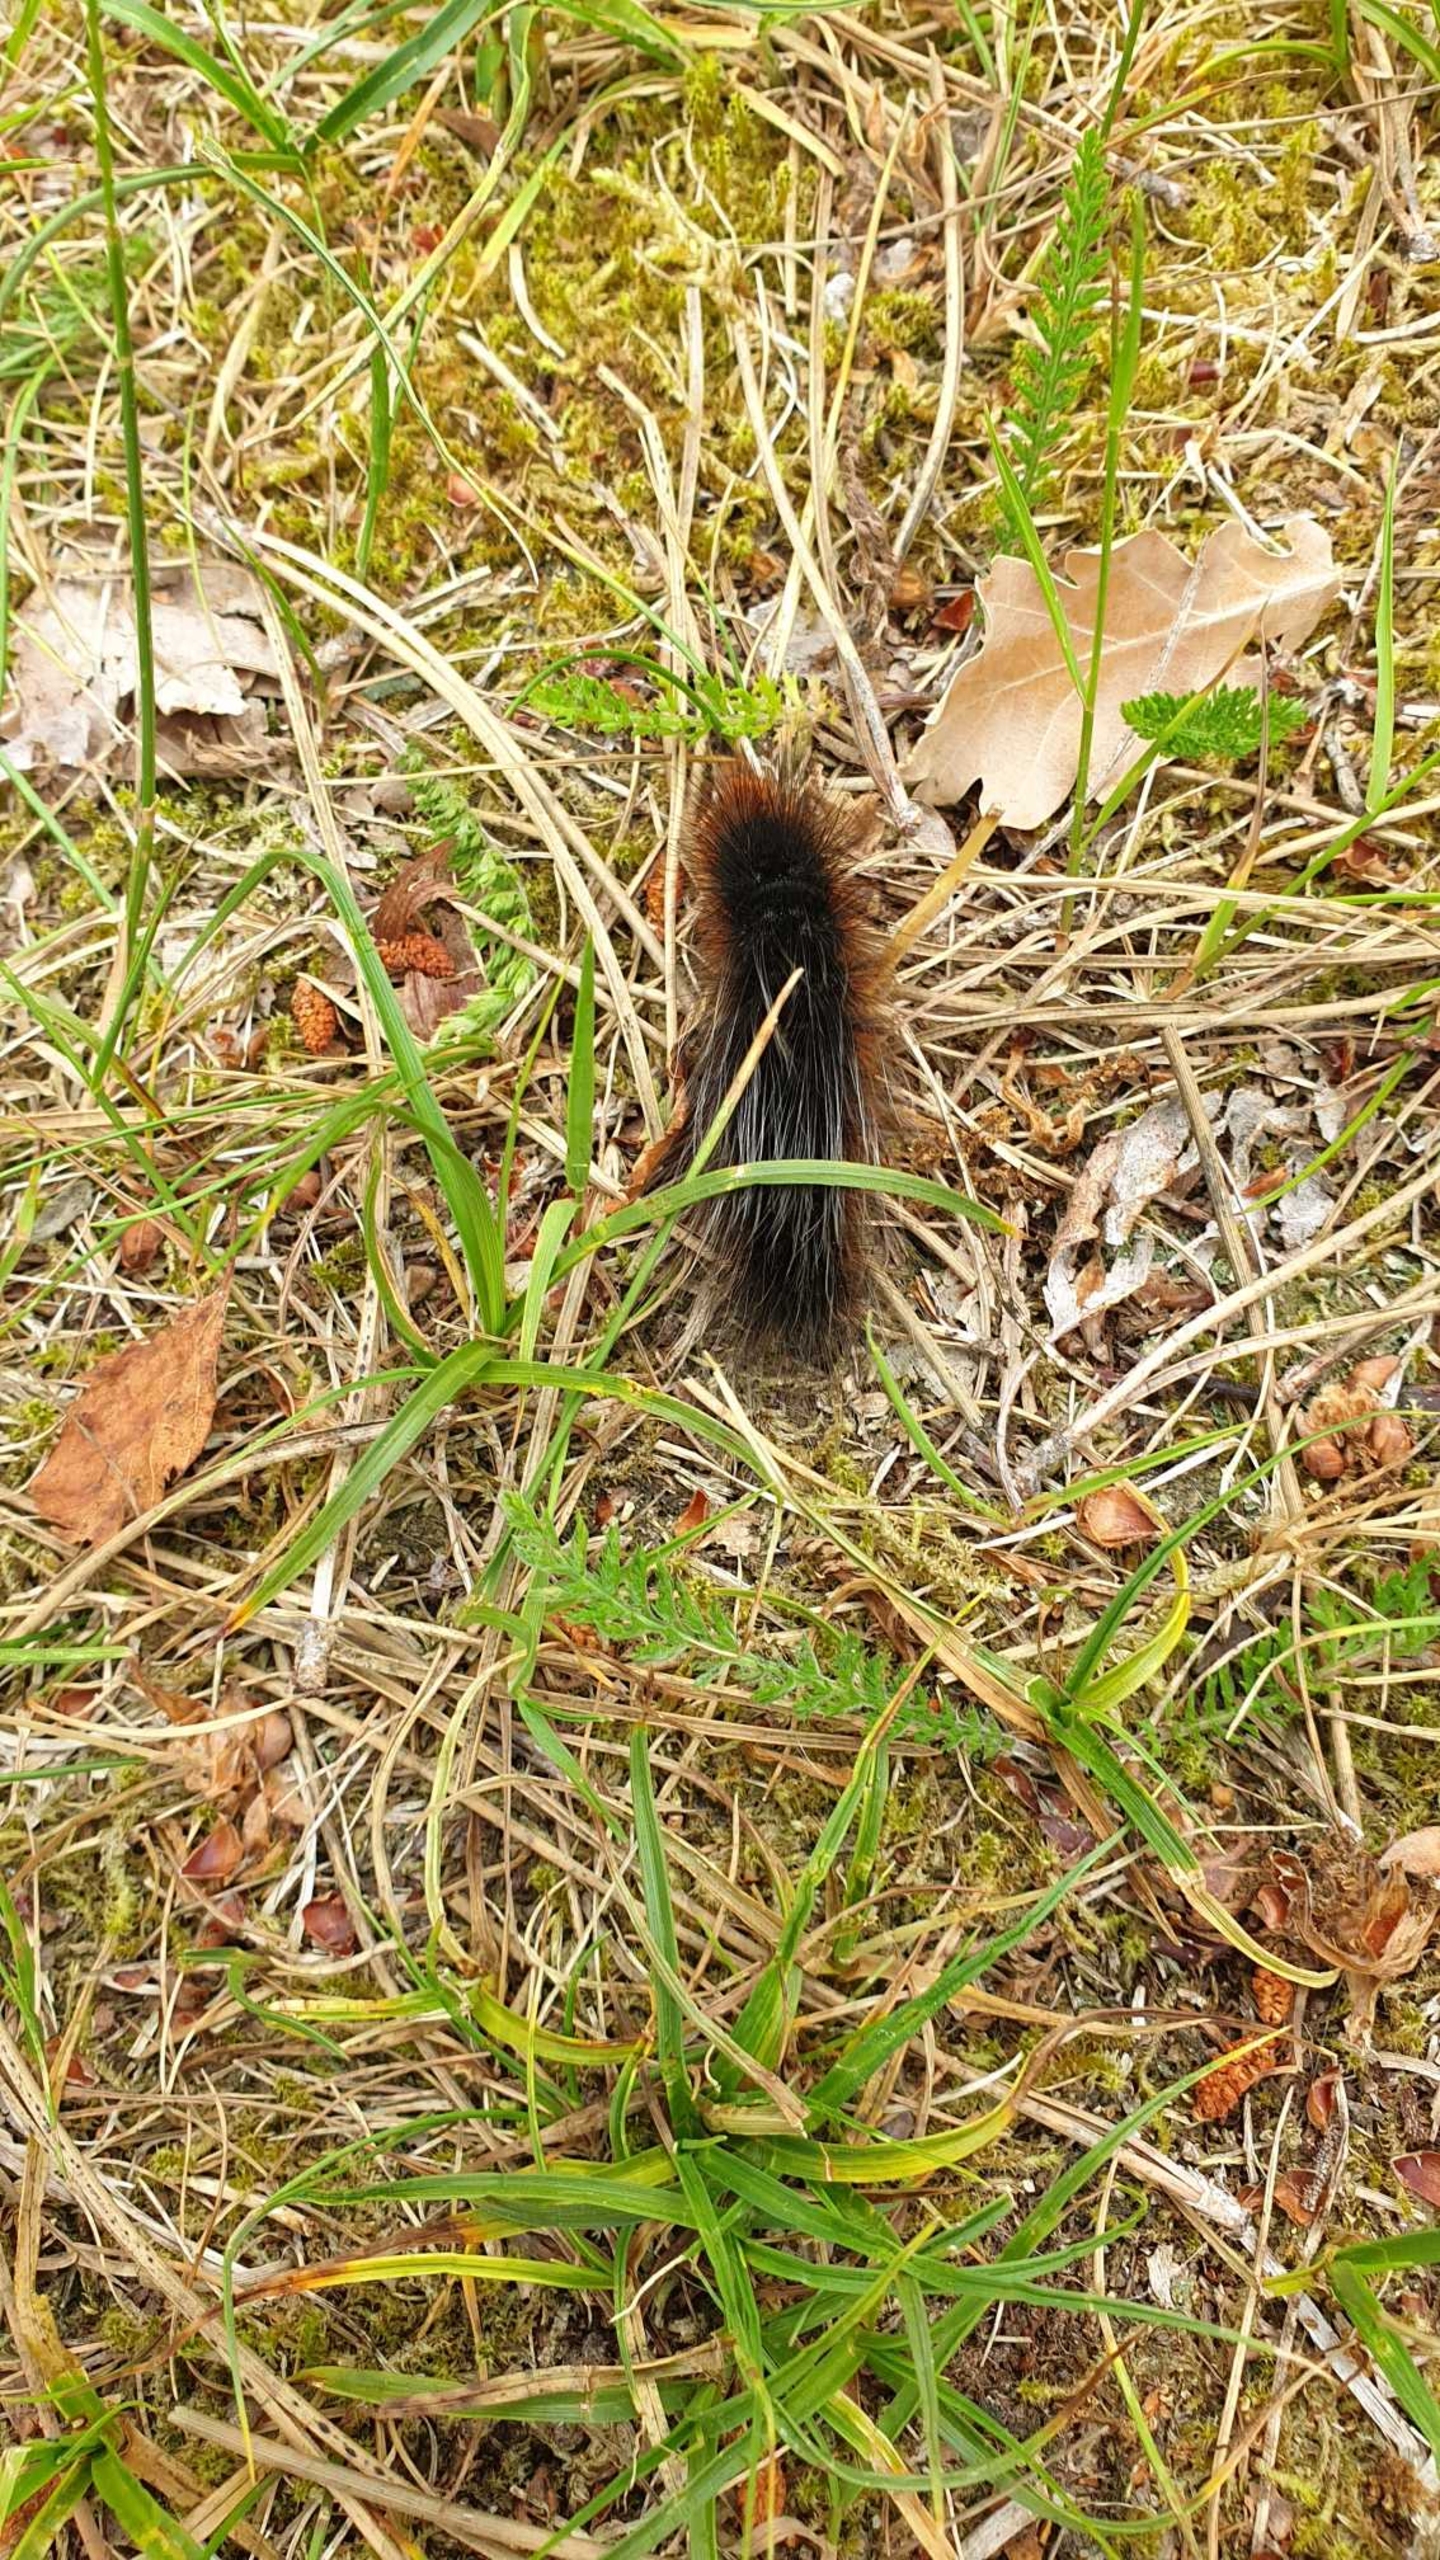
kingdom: Animalia
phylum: Arthropoda
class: Insecta
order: Lepidoptera
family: Erebidae
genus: Arctia
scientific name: Arctia caja
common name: Brun bjørn
